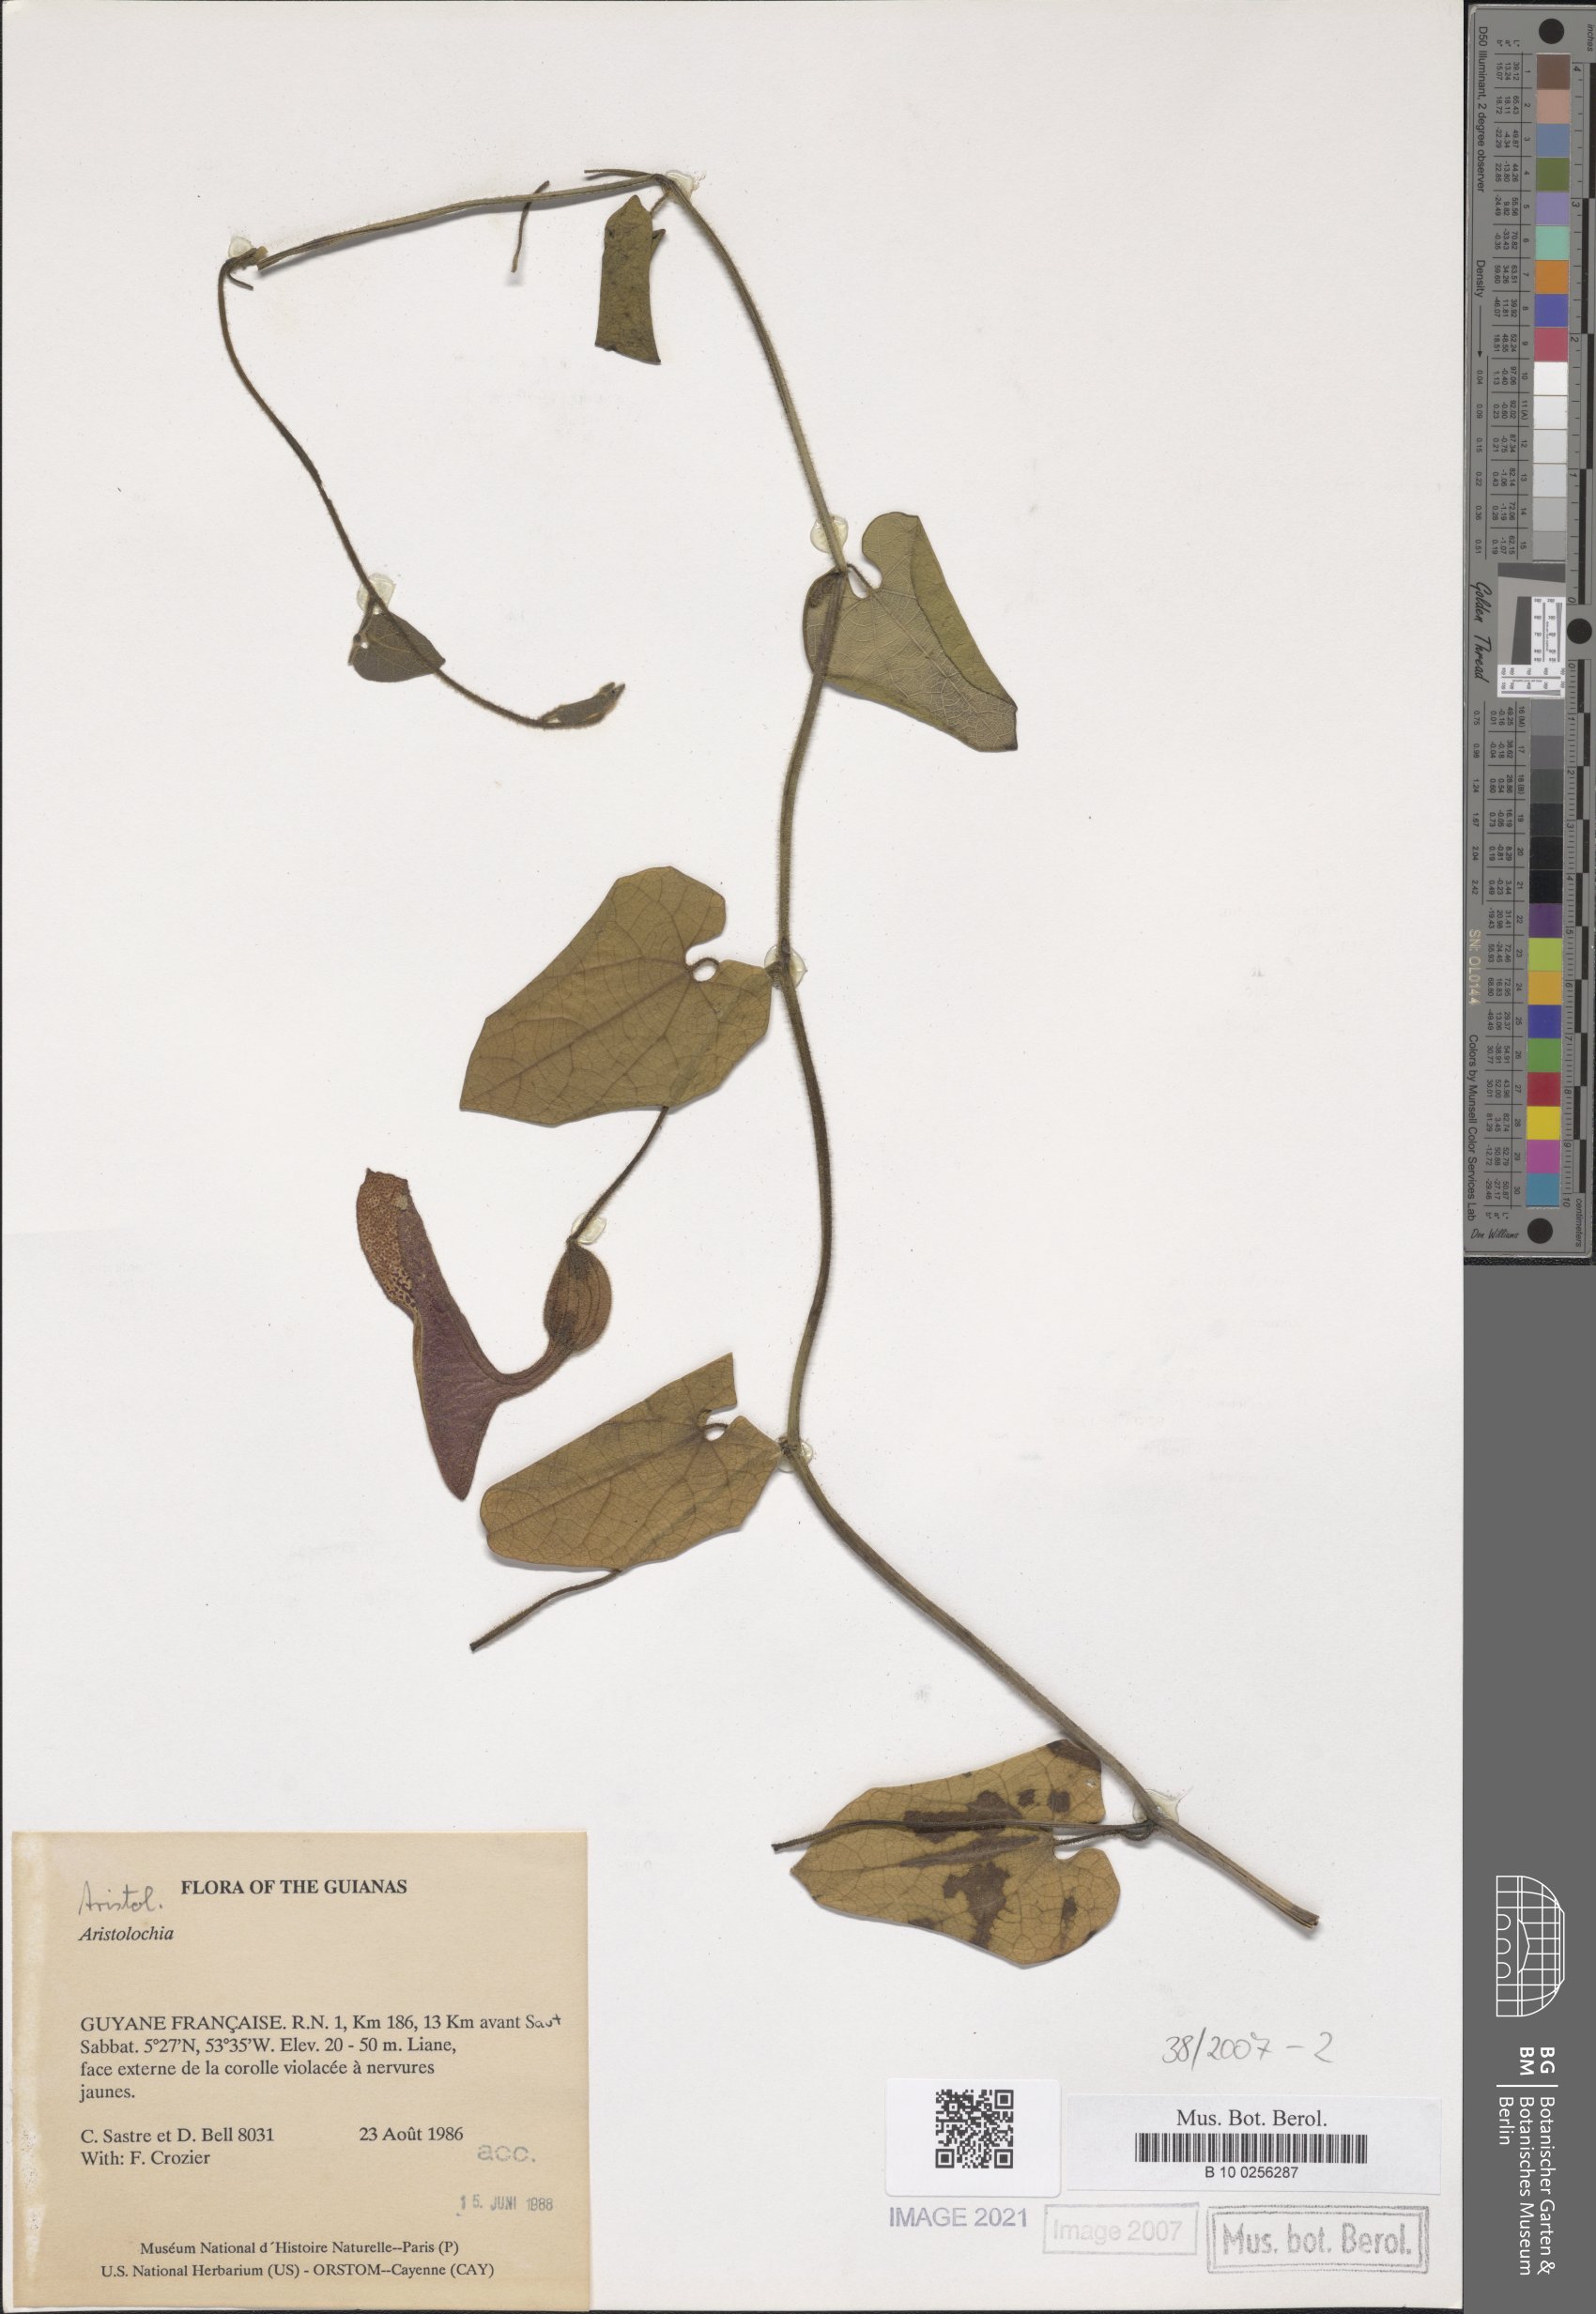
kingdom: Plantae
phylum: Tracheophyta
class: Magnoliopsida
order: Piperales
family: Aristolochiaceae
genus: Aristolochia
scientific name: Aristolochia
